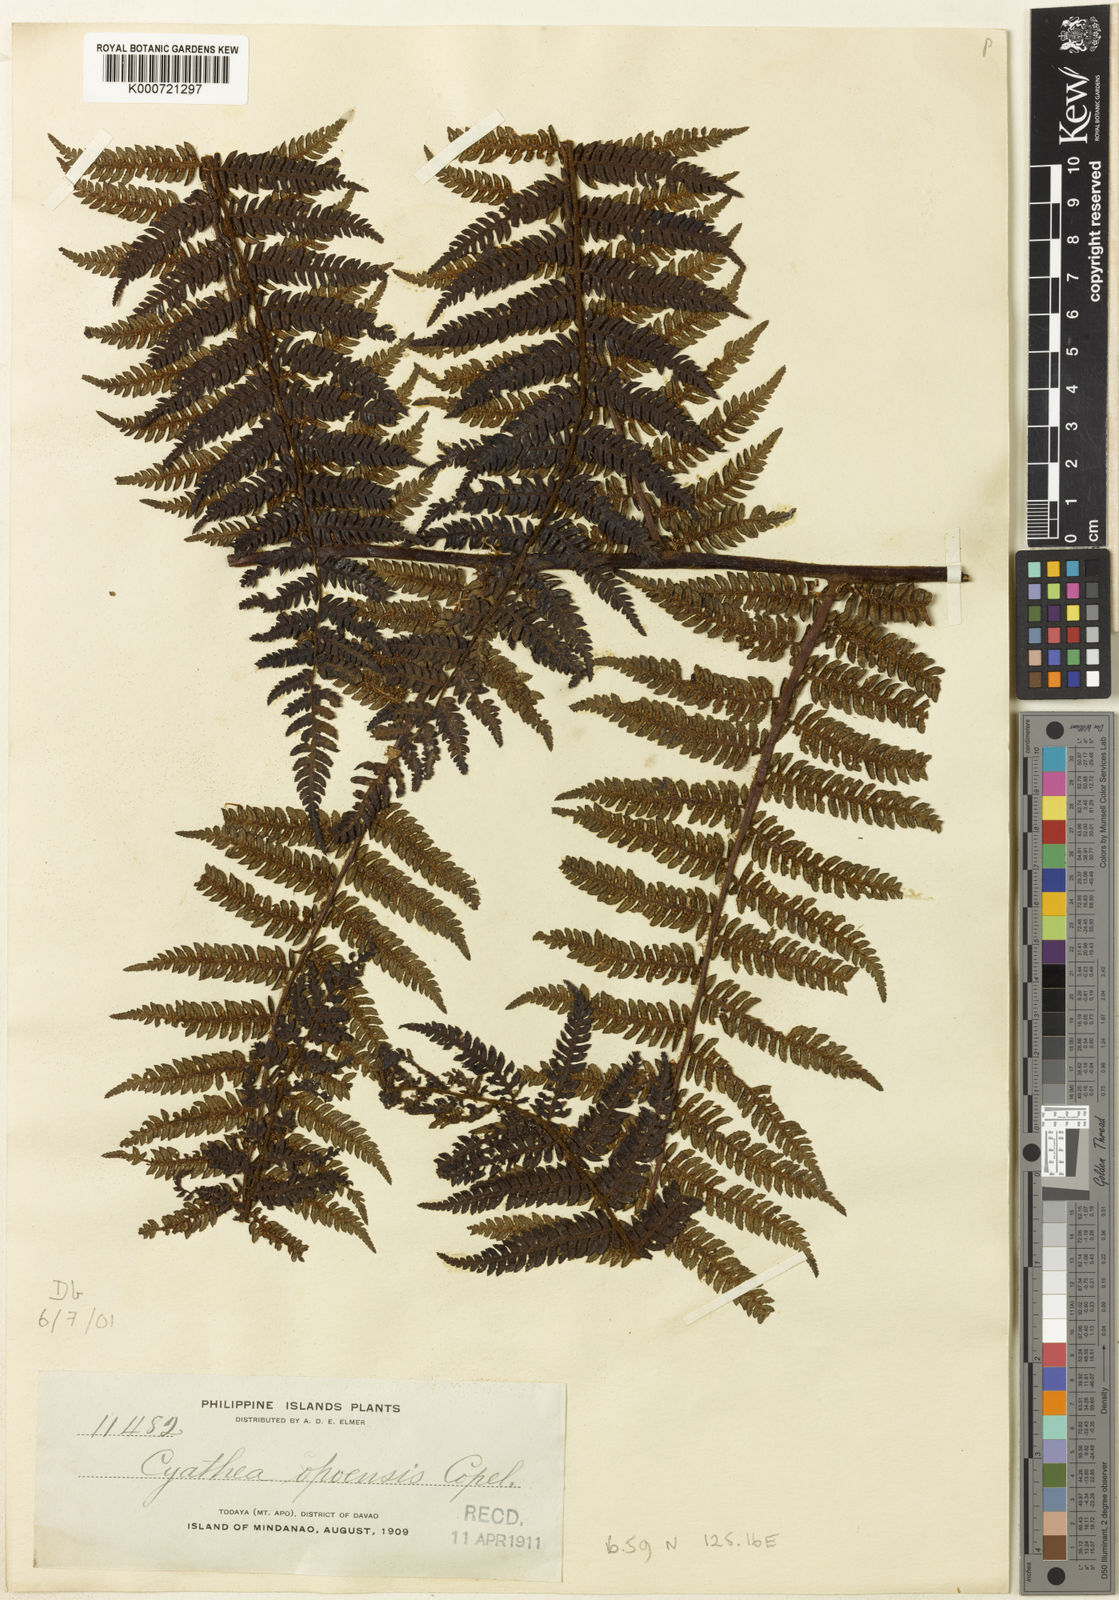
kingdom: Plantae
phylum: Tracheophyta
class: Polypodiopsida
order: Cyatheales
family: Cyatheaceae
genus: Alsophila
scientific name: Alsophila apoensis
